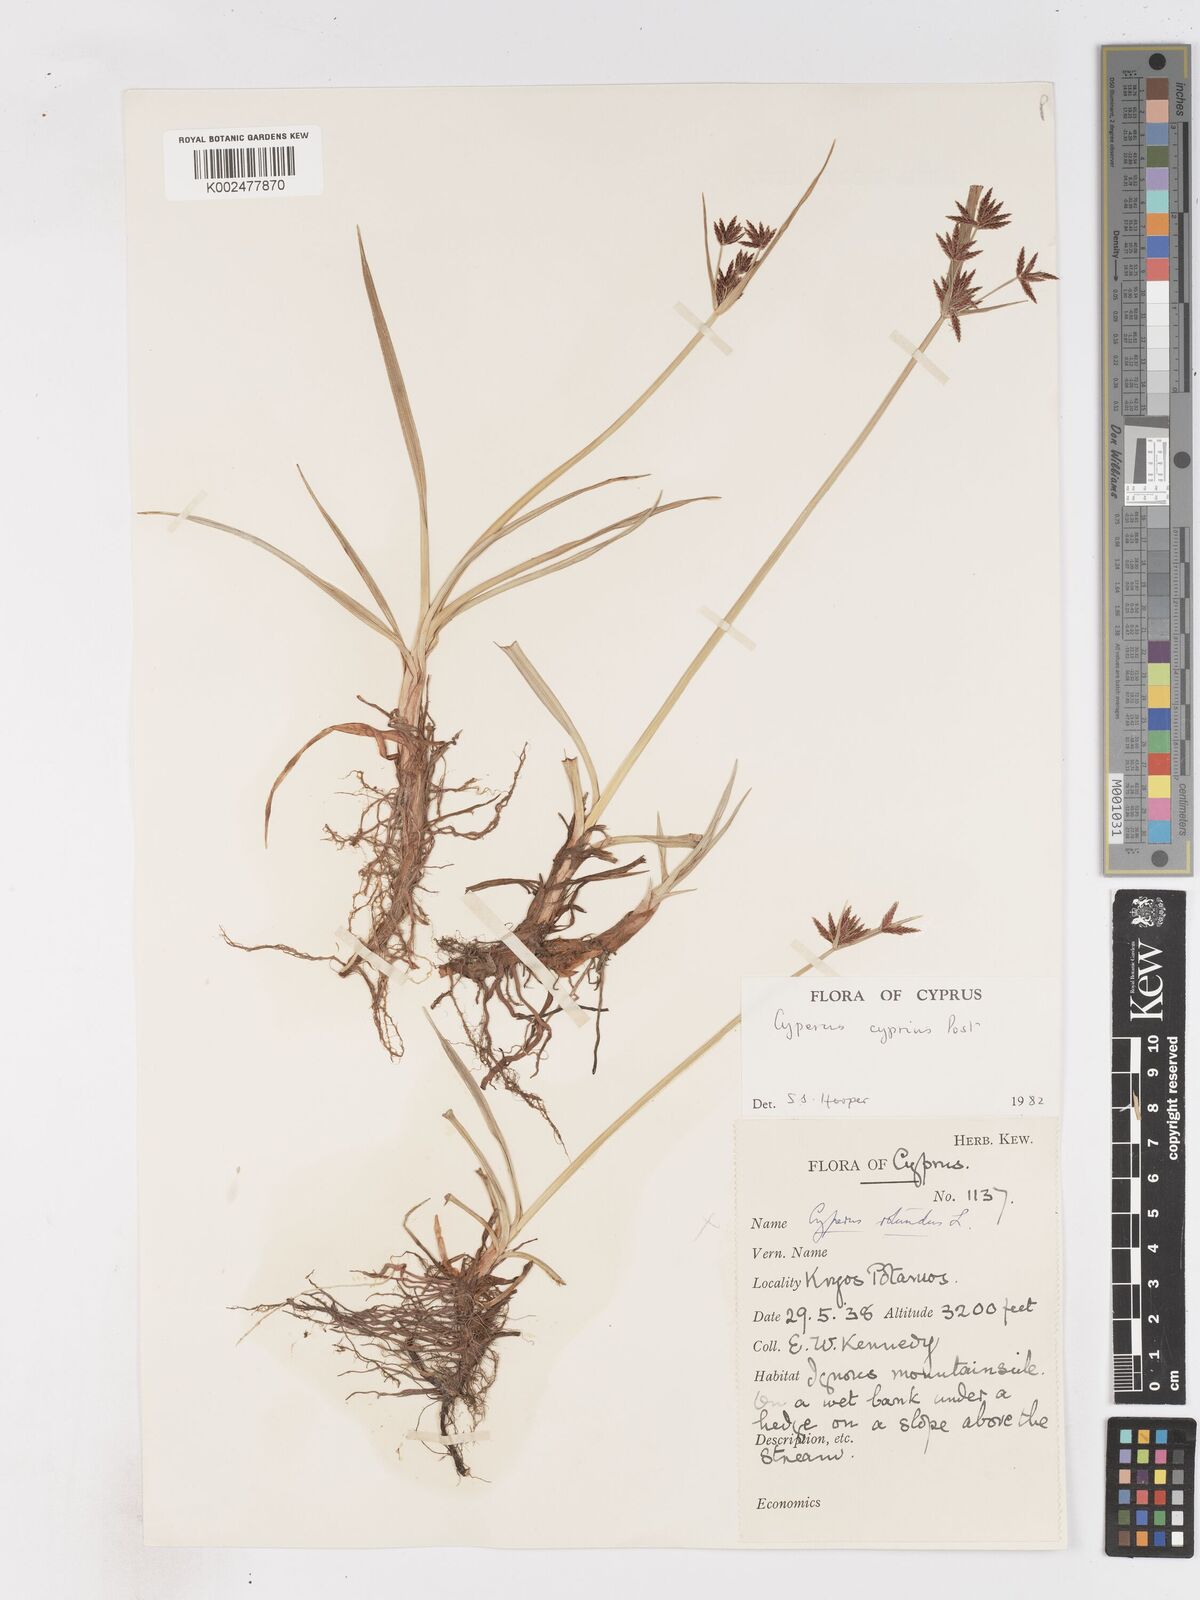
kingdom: Plantae
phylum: Tracheophyta
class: Liliopsida
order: Poales
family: Cyperaceae
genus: Cyperus
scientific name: Cyperus longus
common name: Galingale
